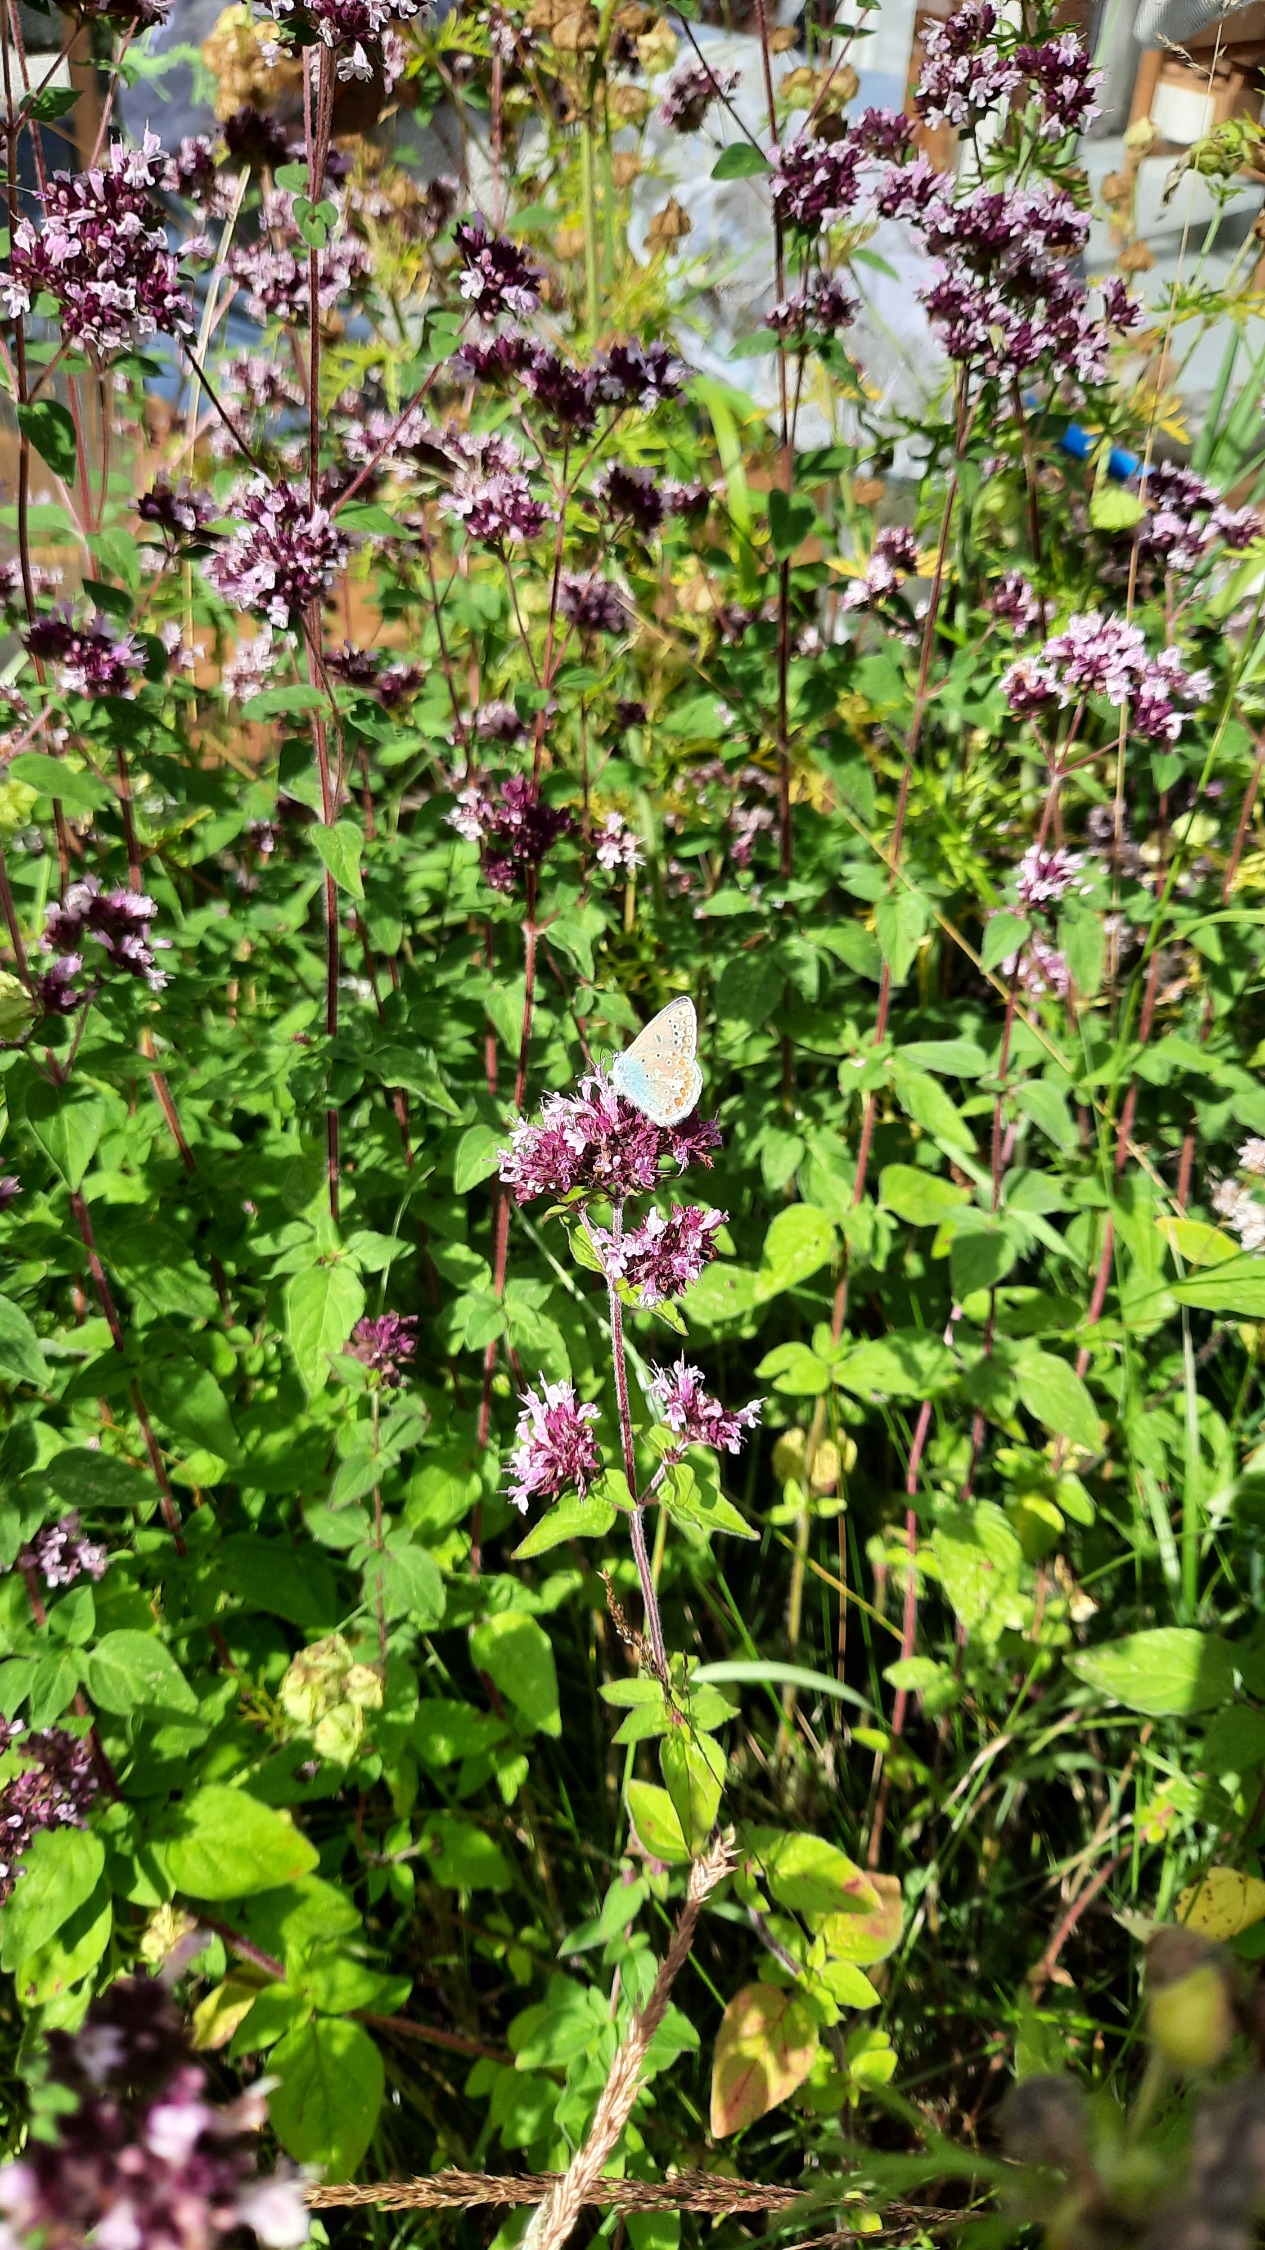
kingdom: Animalia
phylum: Arthropoda
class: Insecta
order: Lepidoptera
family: Lycaenidae
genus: Polyommatus
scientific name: Polyommatus icarus
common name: Almindelig blåfugl
